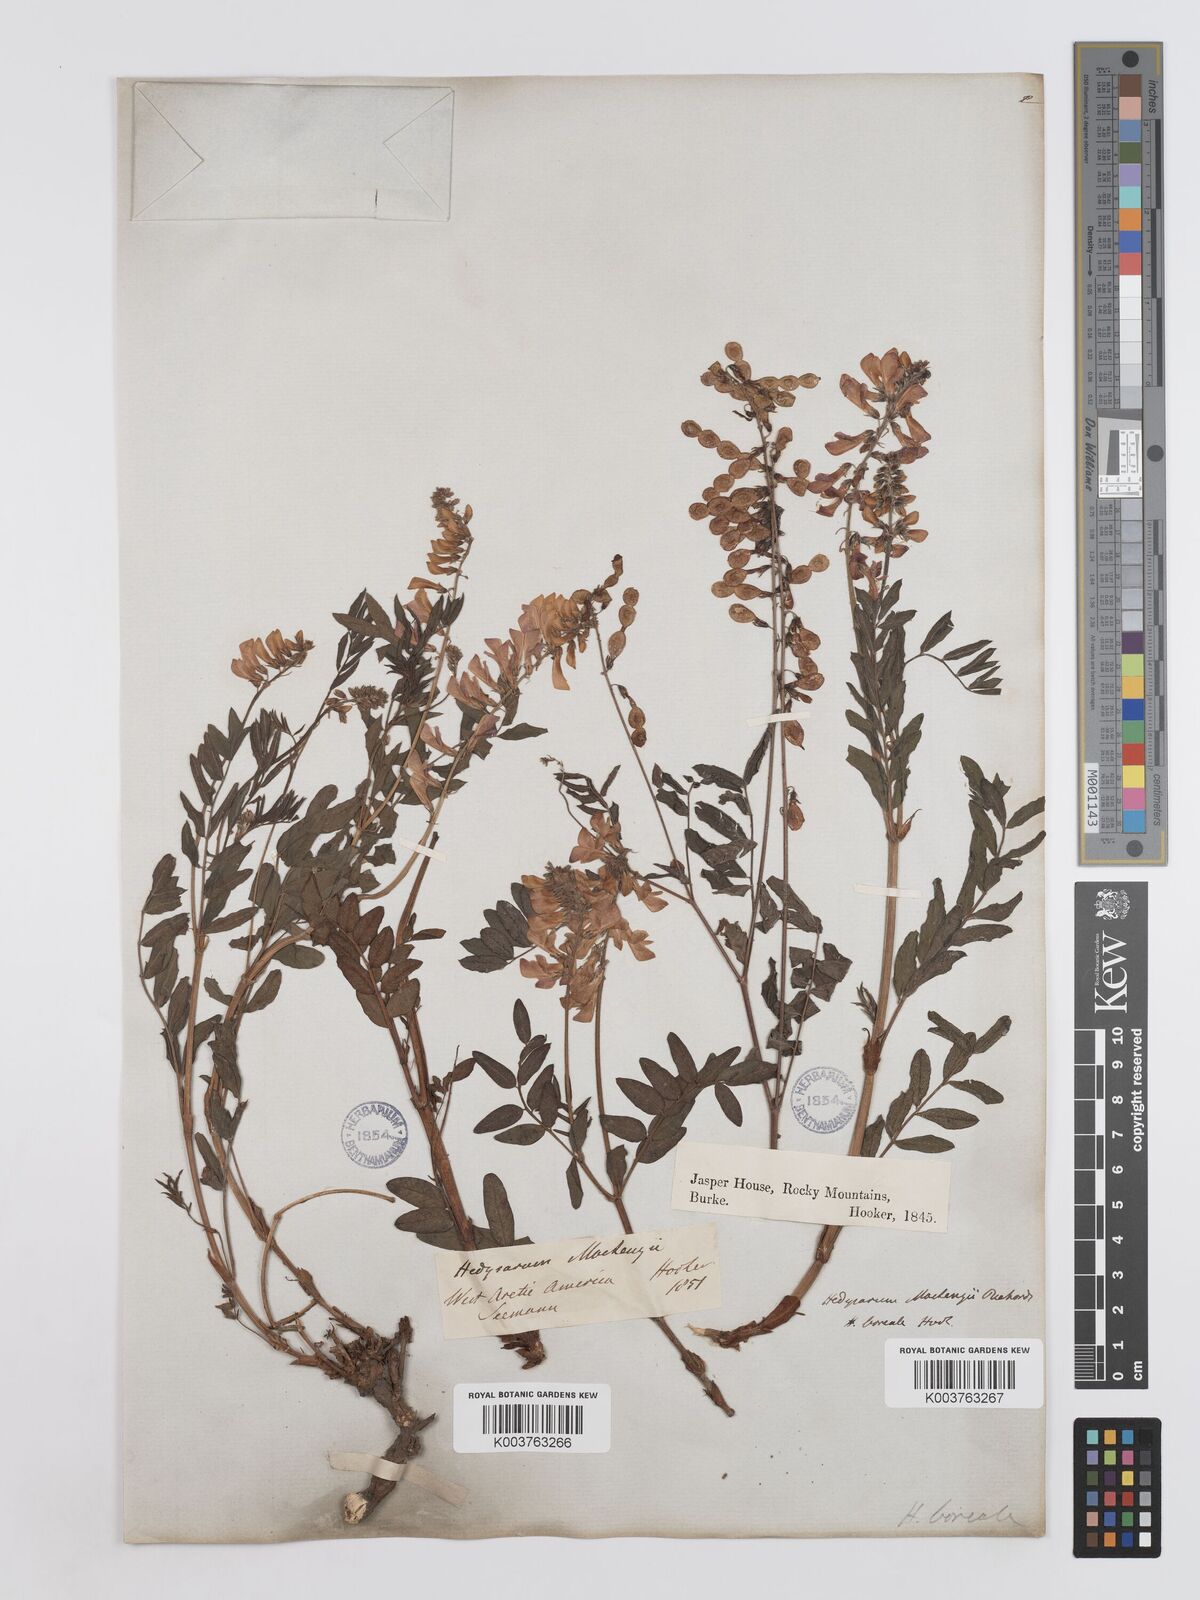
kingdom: Plantae
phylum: Tracheophyta
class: Magnoliopsida
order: Fabales
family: Fabaceae
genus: Hedysarum
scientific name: Hedysarum boreale
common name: Northern sweet-vetch
